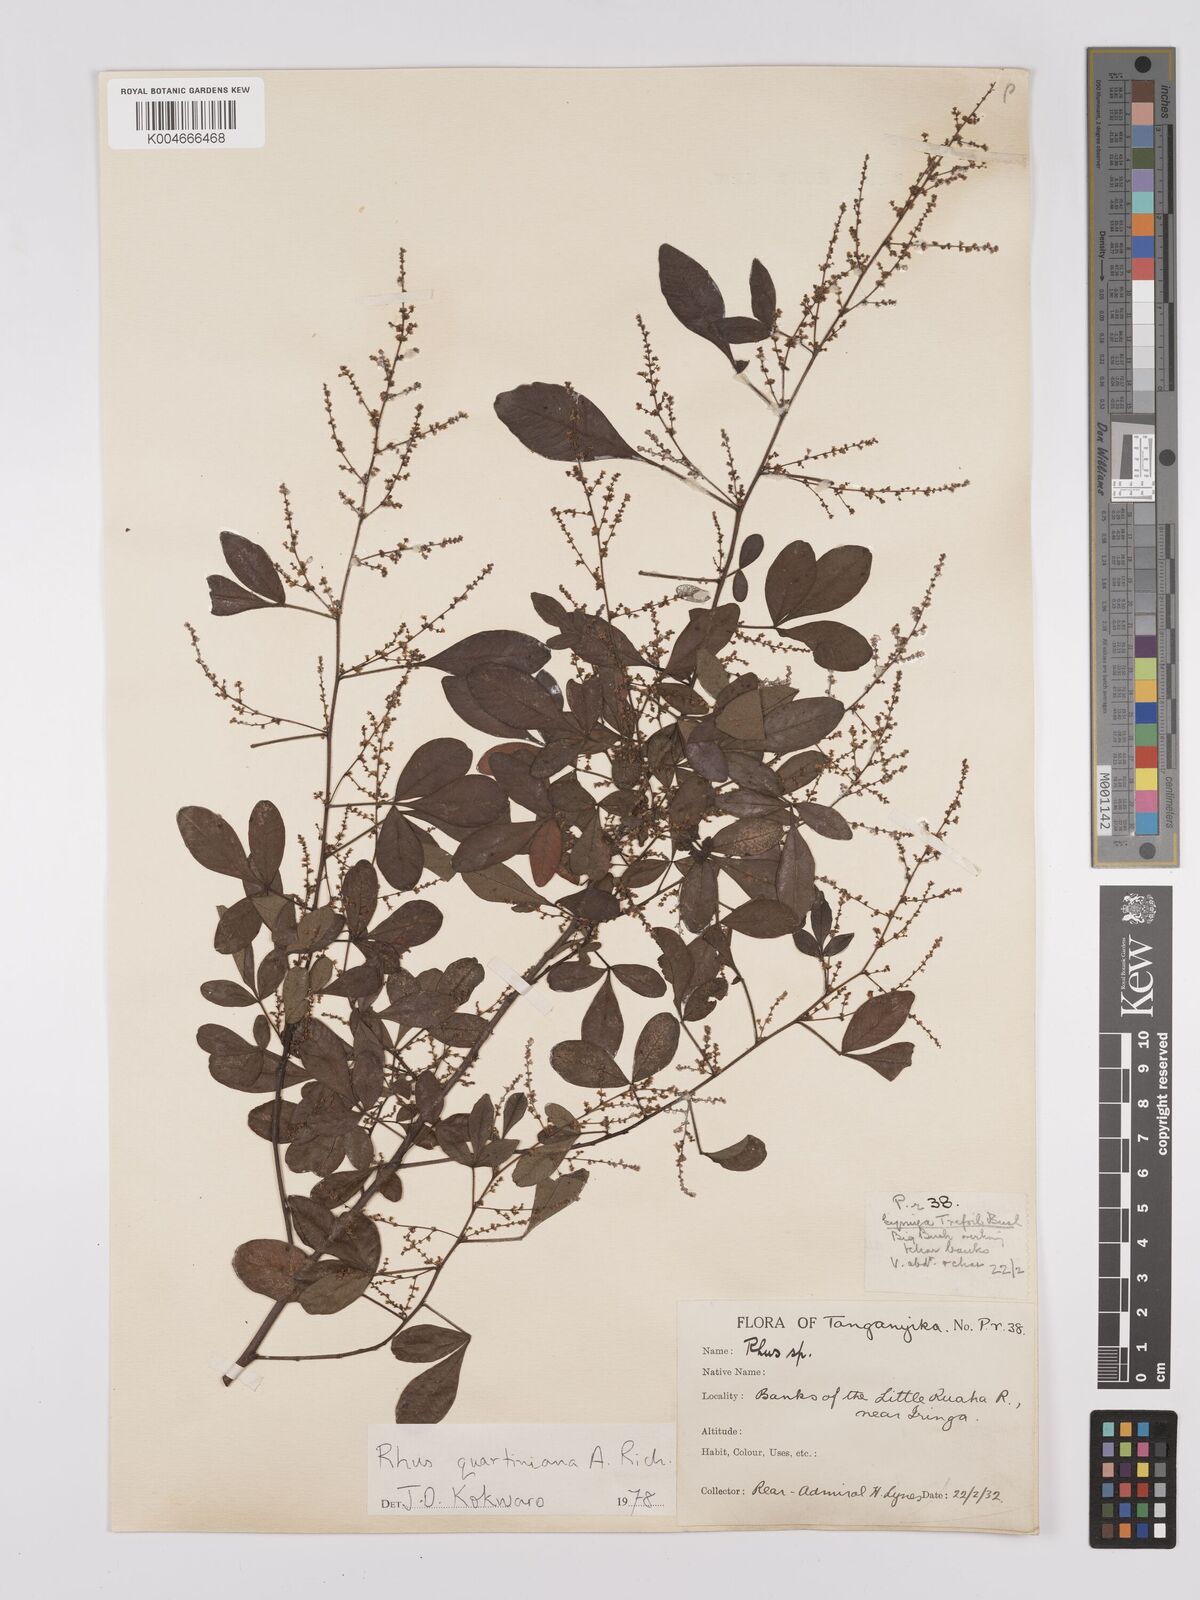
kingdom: Plantae
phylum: Tracheophyta
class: Magnoliopsida
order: Sapindales
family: Anacardiaceae
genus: Searsia
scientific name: Searsia quartiniana
